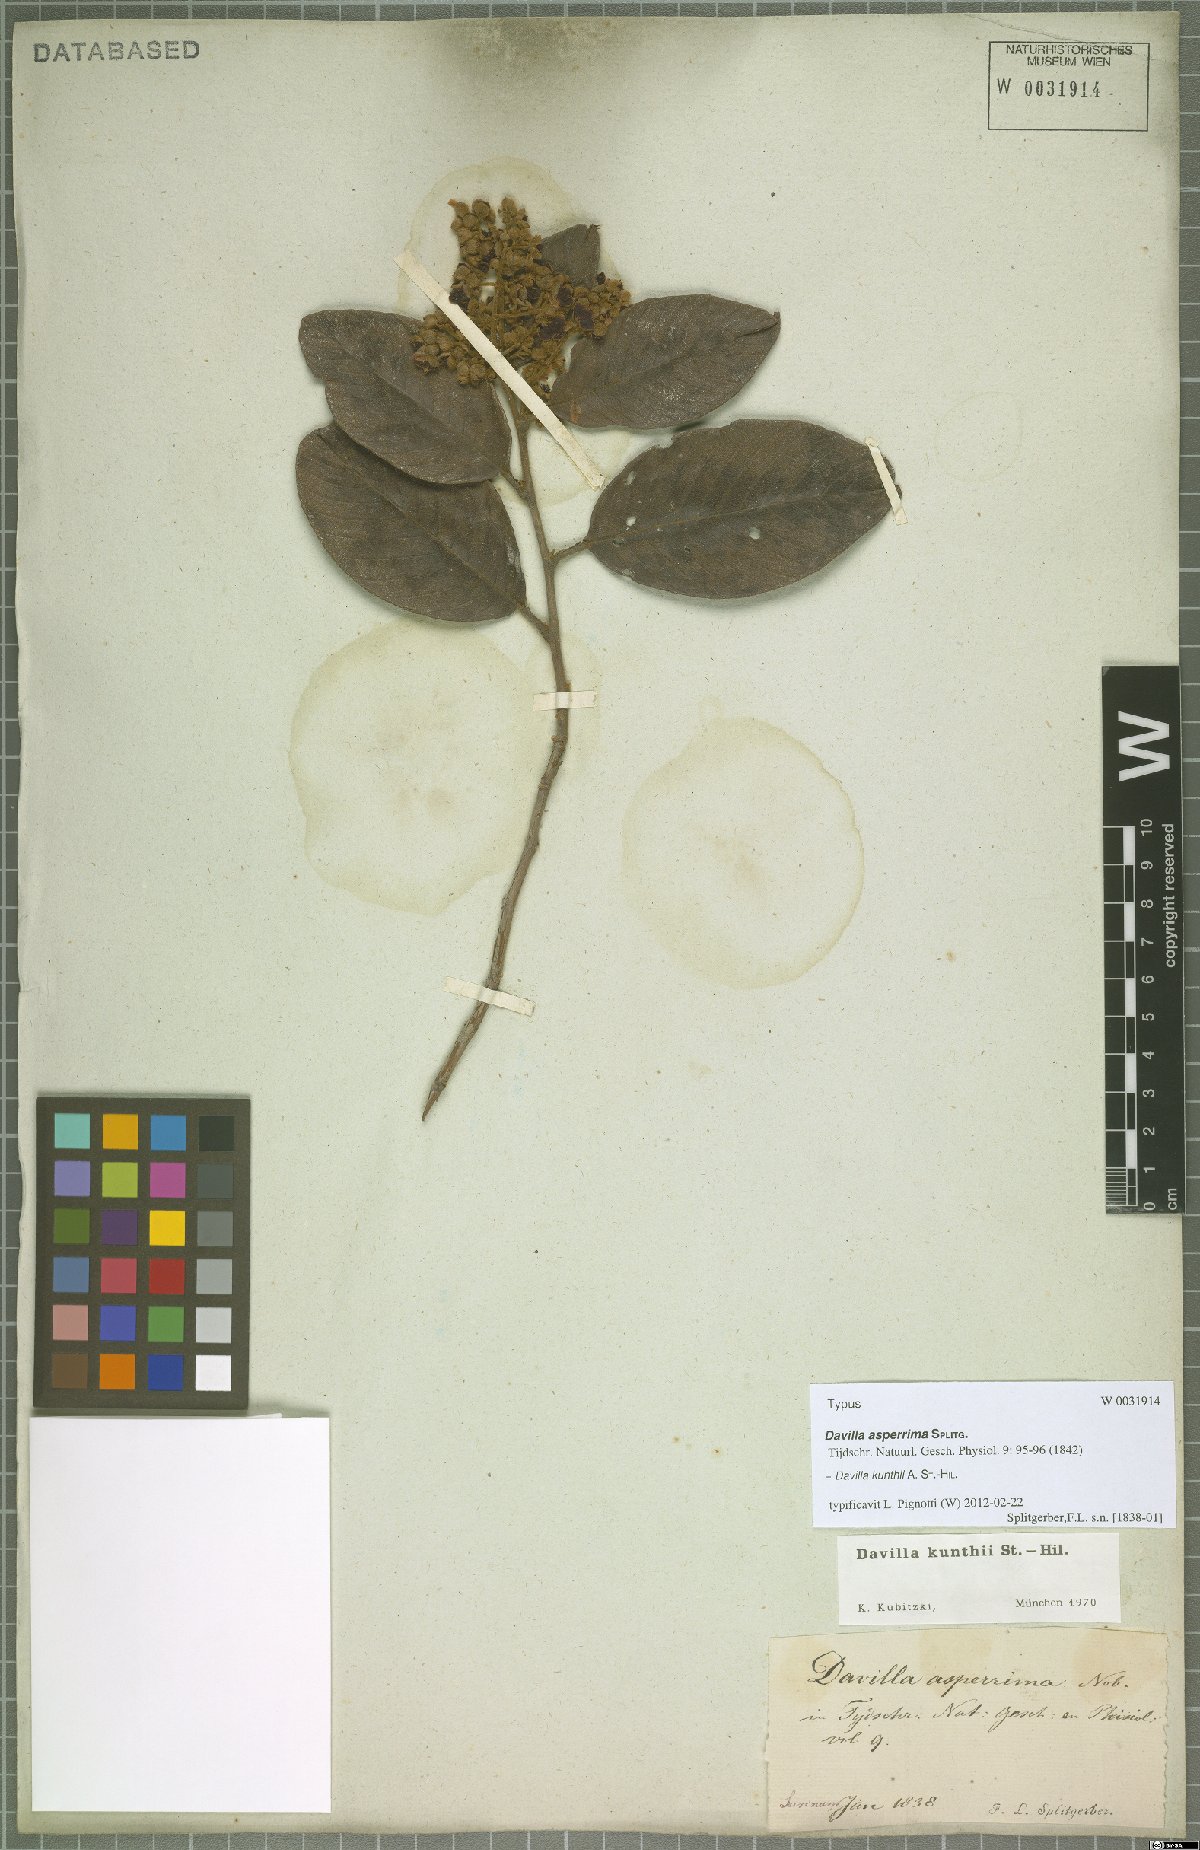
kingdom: Plantae
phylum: Tracheophyta
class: Magnoliopsida
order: Dilleniales
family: Dilleniaceae
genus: Davilla
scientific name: Davilla kunthii
